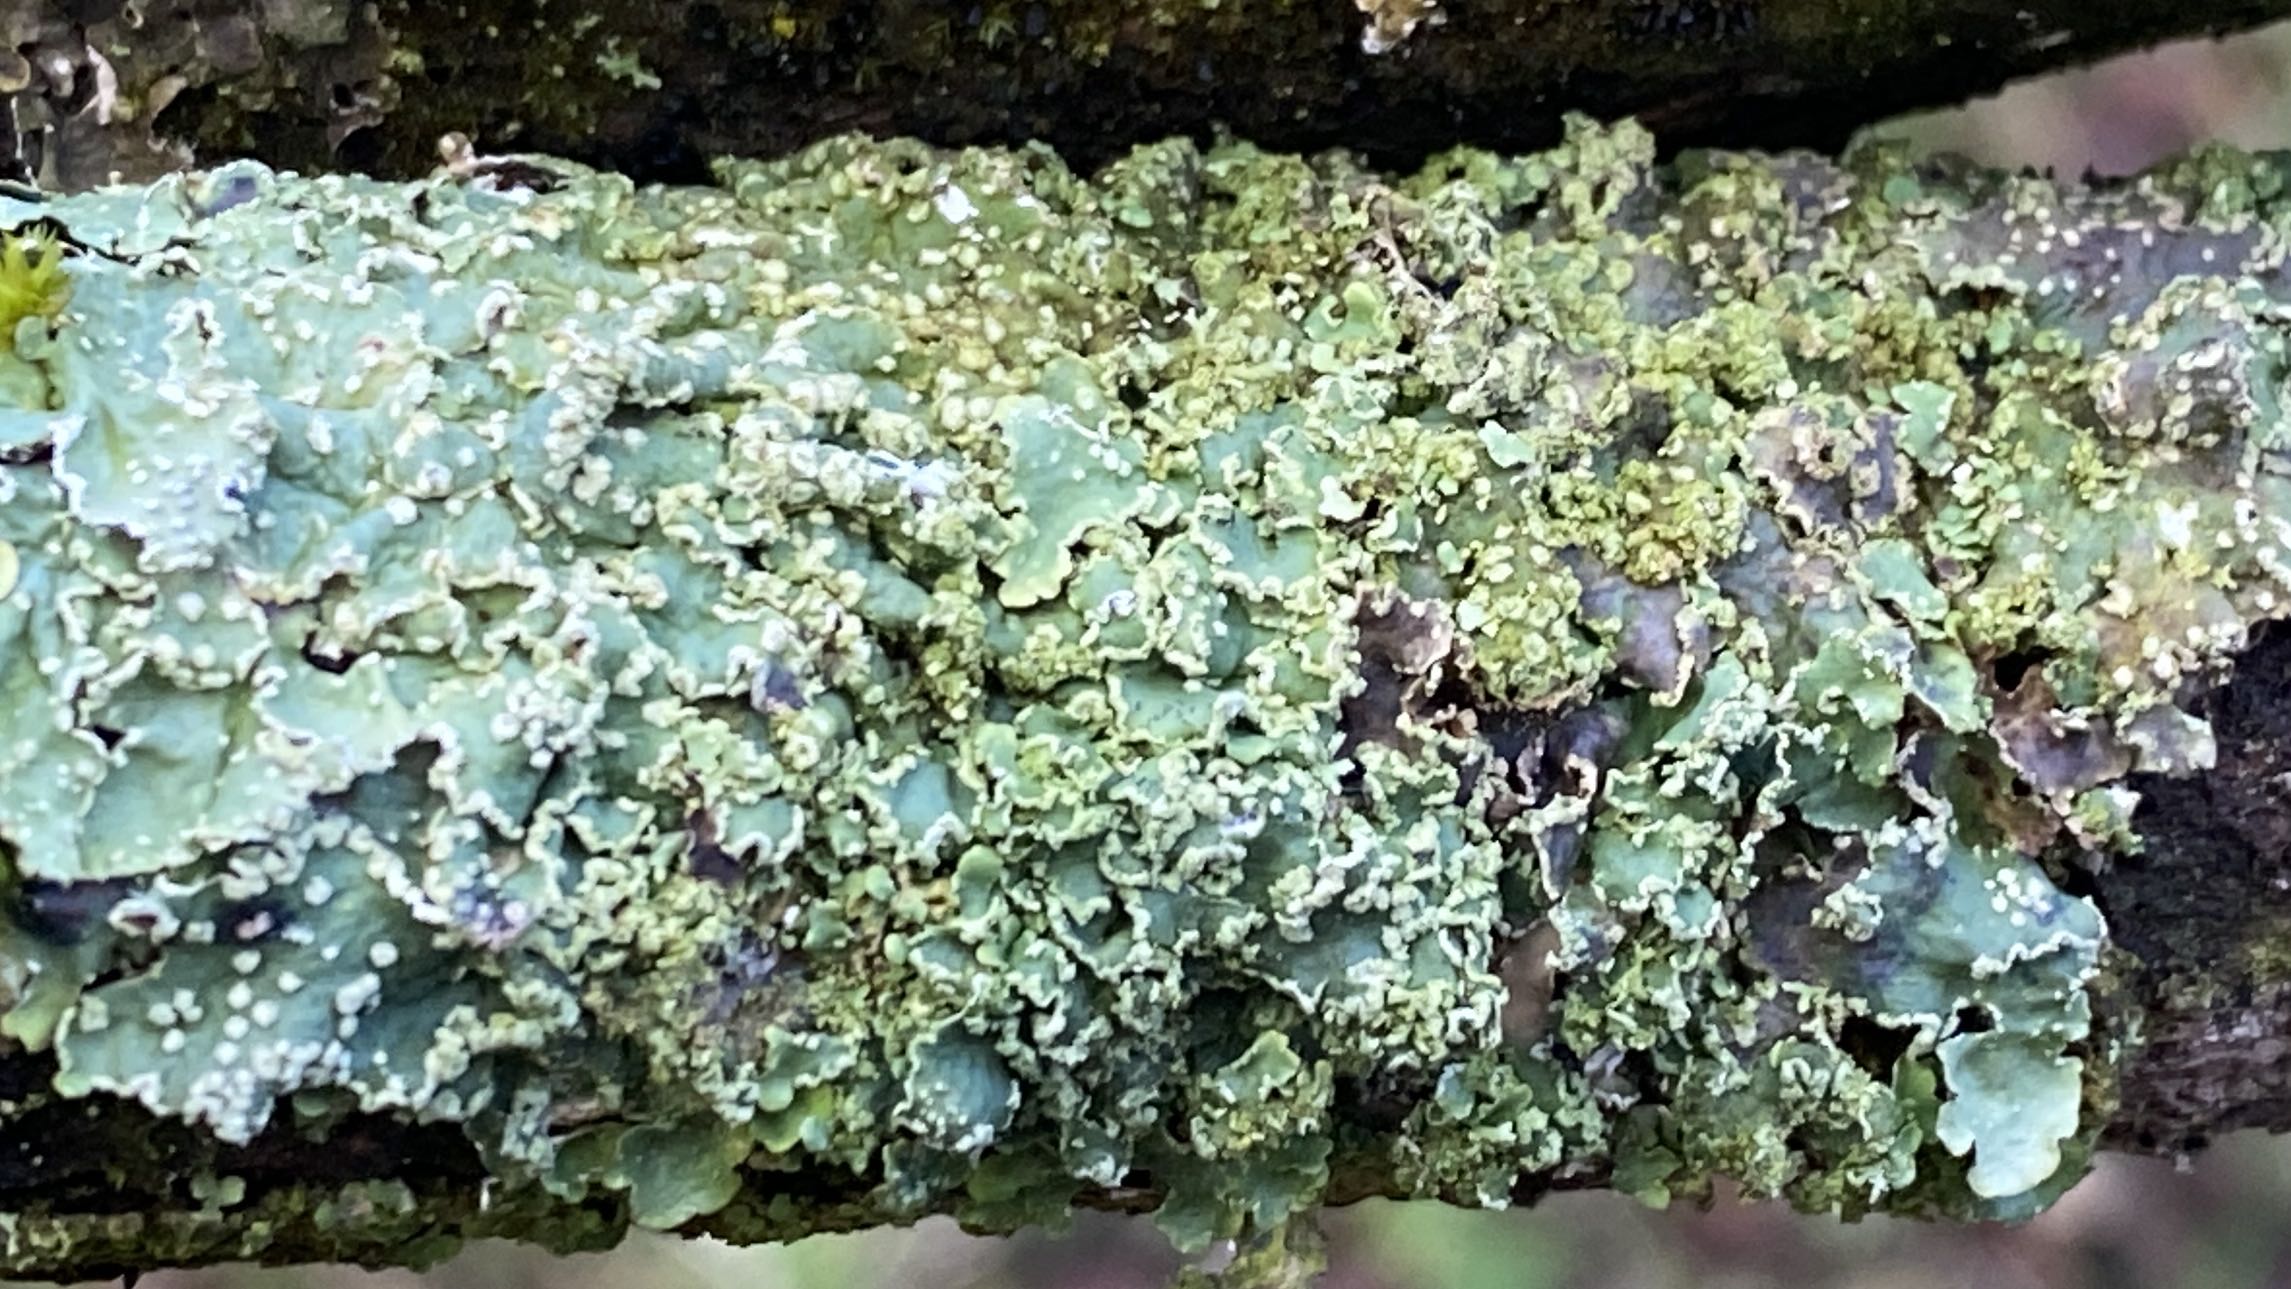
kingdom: Fungi
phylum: Ascomycota
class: Lecanoromycetes
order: Lecanorales
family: Parmeliaceae
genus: Punctelia
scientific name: Punctelia jeckeri
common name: randstøvet skållav
